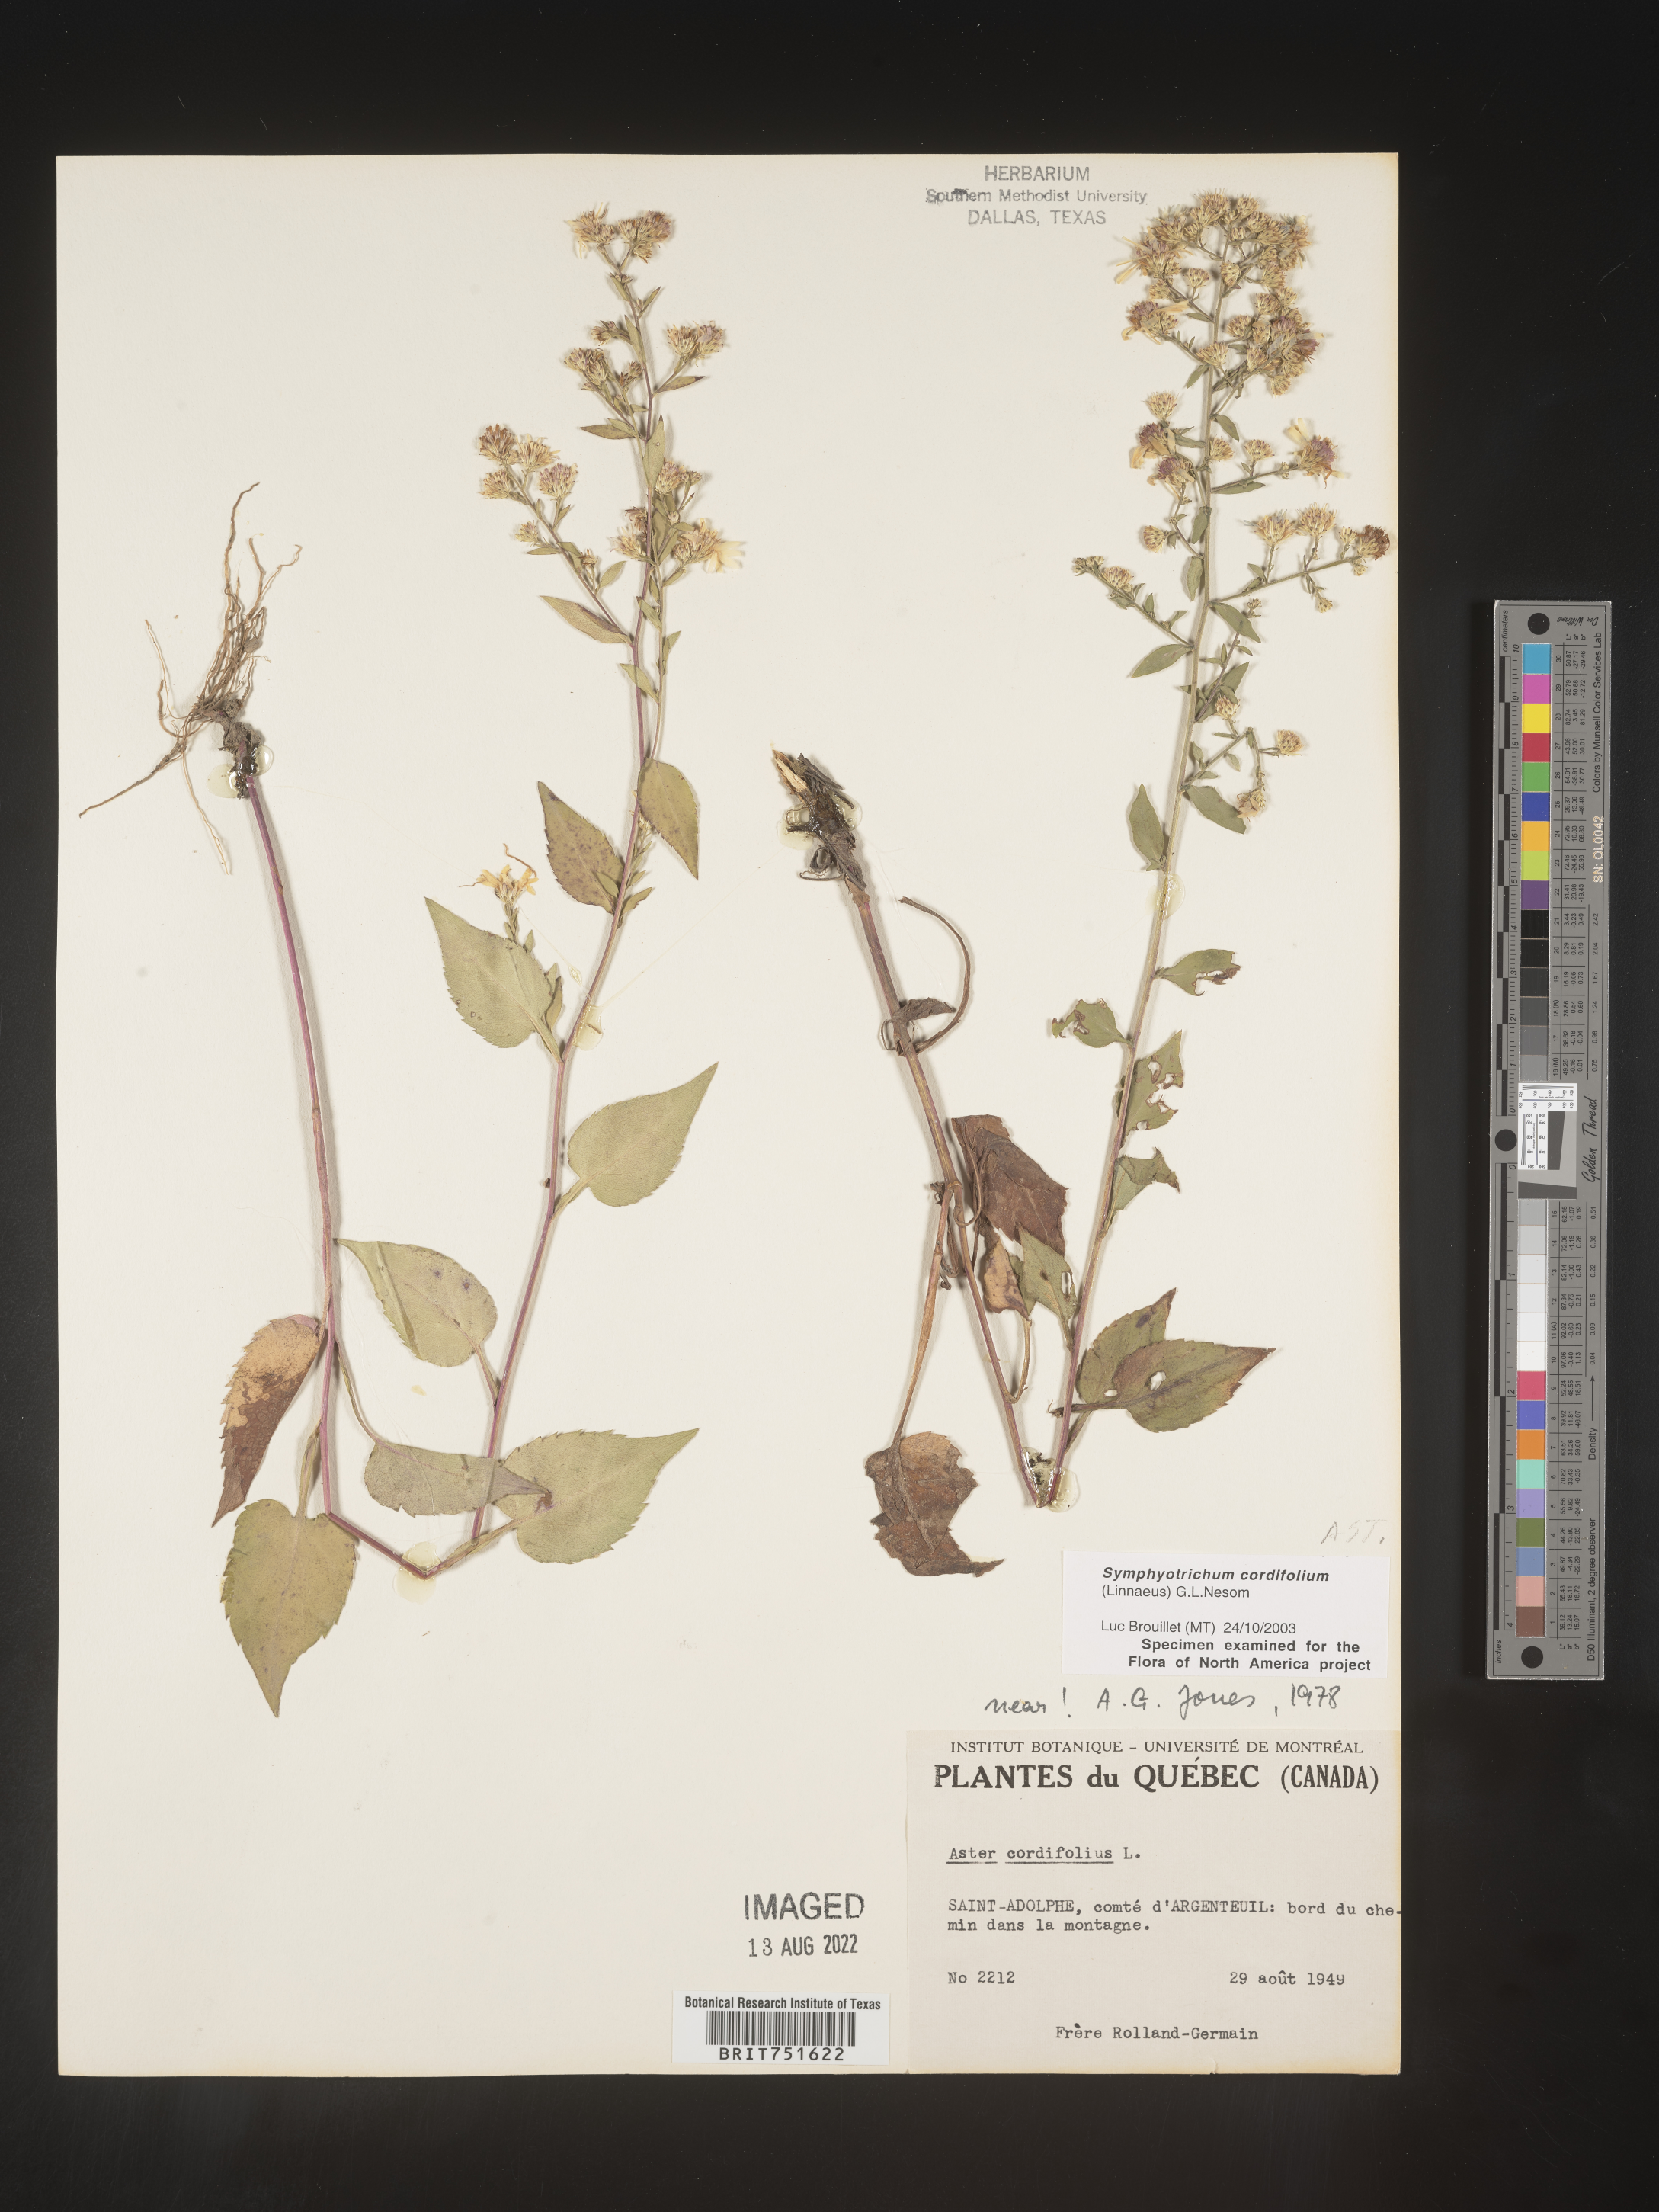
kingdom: Plantae
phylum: Tracheophyta
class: Magnoliopsida
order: Asterales
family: Asteraceae
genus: Symphyotrichum
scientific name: Symphyotrichum cordifolium
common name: Beeweed
